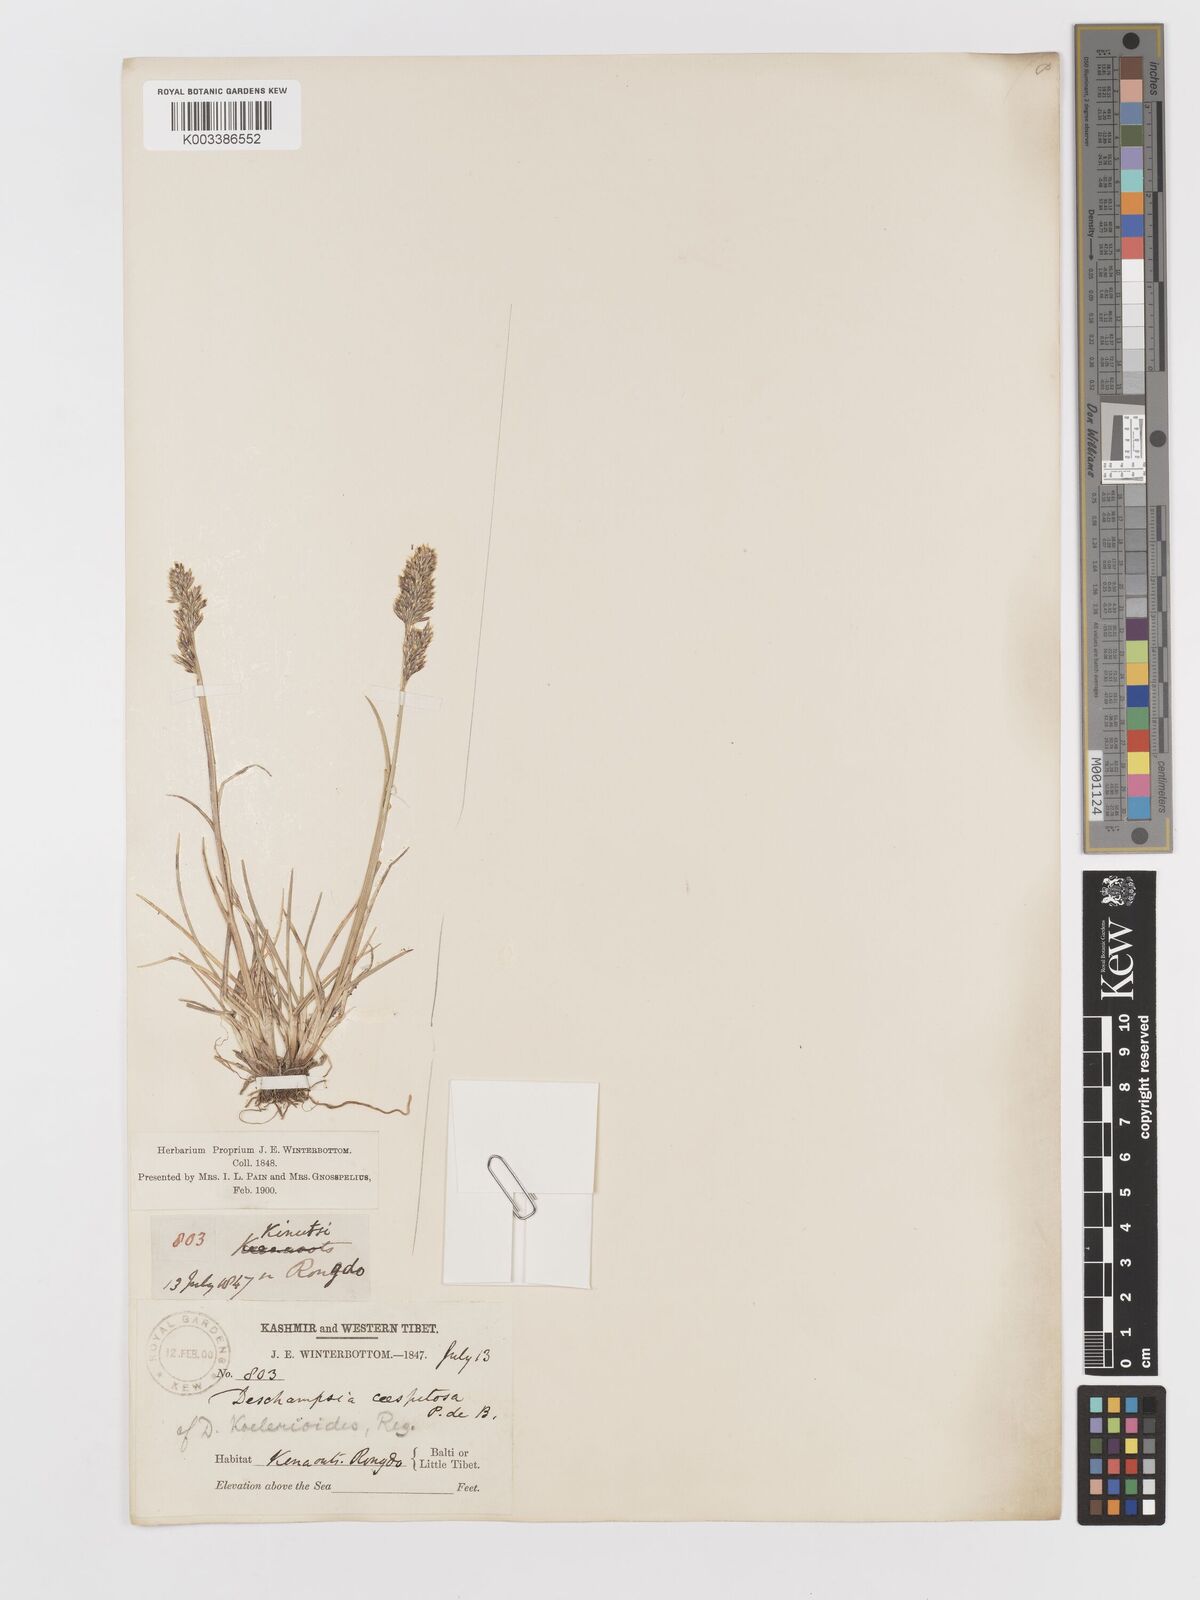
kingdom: Plantae
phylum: Tracheophyta
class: Liliopsida
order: Poales
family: Poaceae
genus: Deschampsia
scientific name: Deschampsia koelerioides
